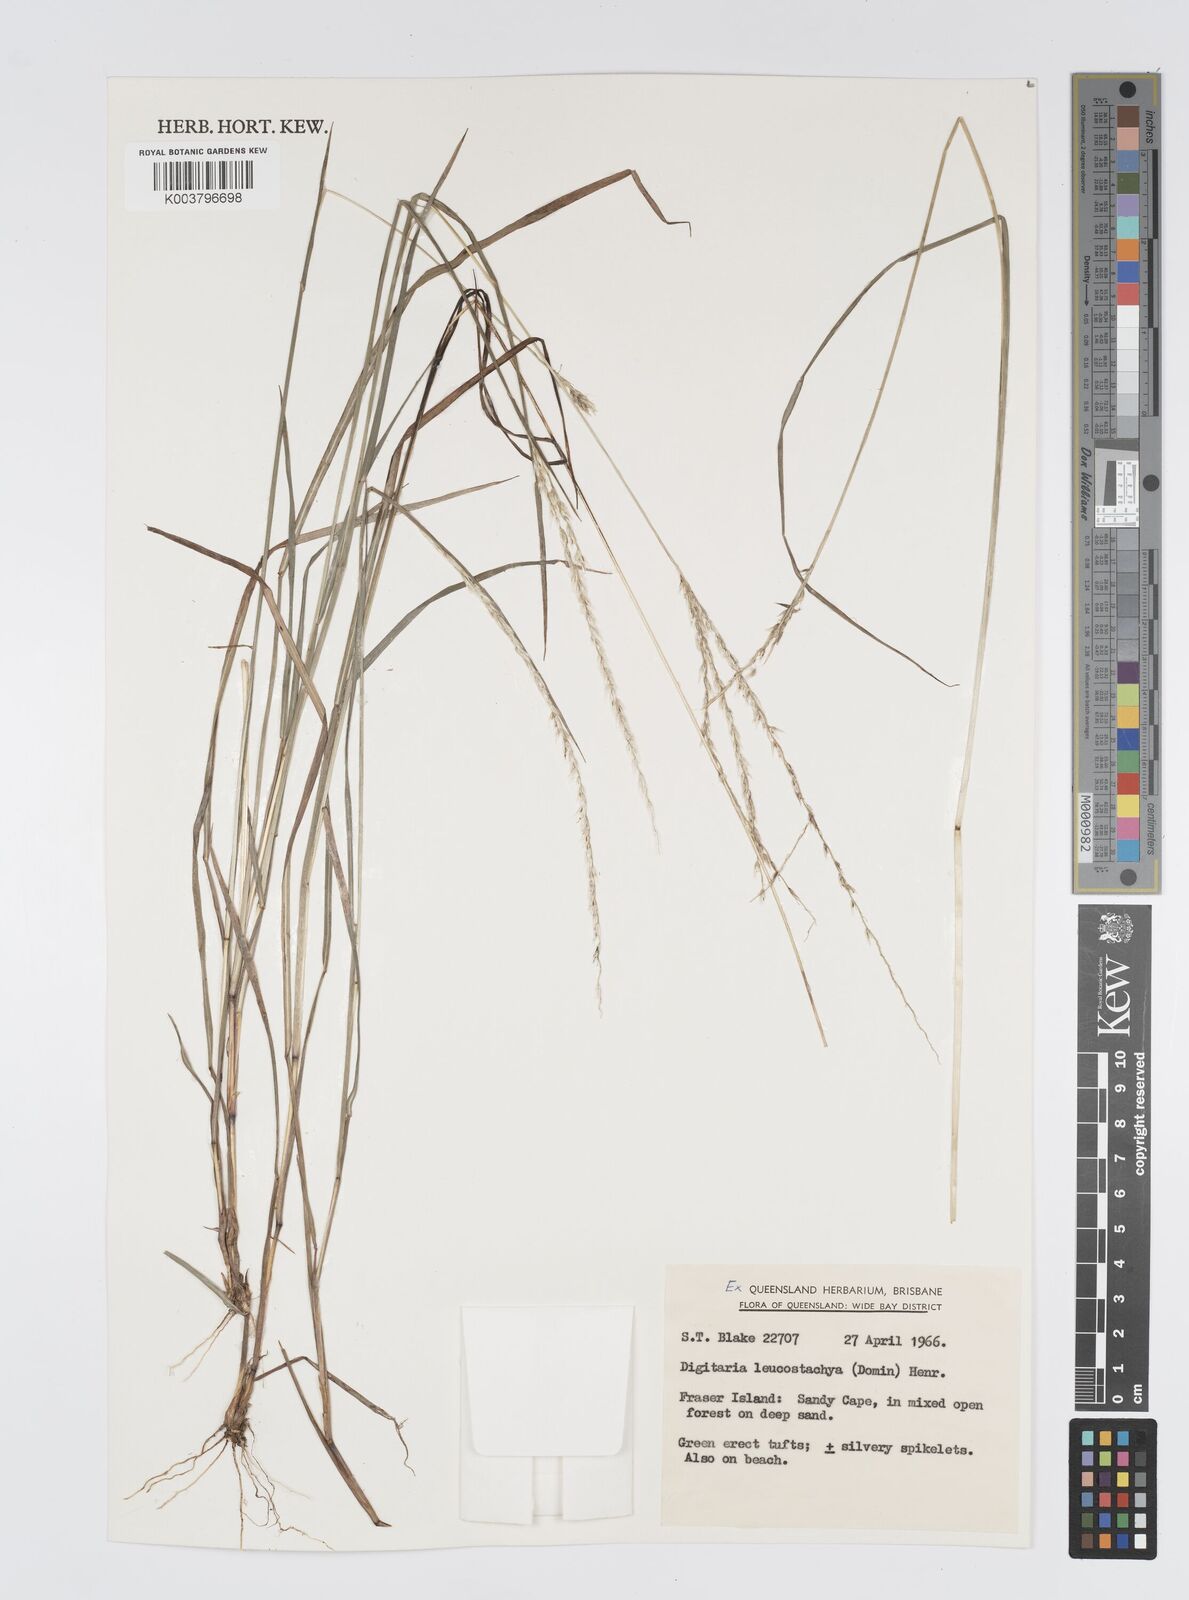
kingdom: Plantae
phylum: Tracheophyta
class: Liliopsida
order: Poales
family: Poaceae
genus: Digitaria
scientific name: Digitaria leucostachya
